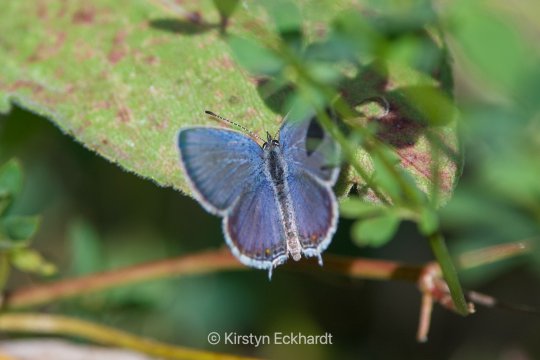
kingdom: Animalia
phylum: Arthropoda
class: Insecta
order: Lepidoptera
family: Lycaenidae
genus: Elkalyce
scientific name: Elkalyce comyntas
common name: Eastern Tailed-Blue
